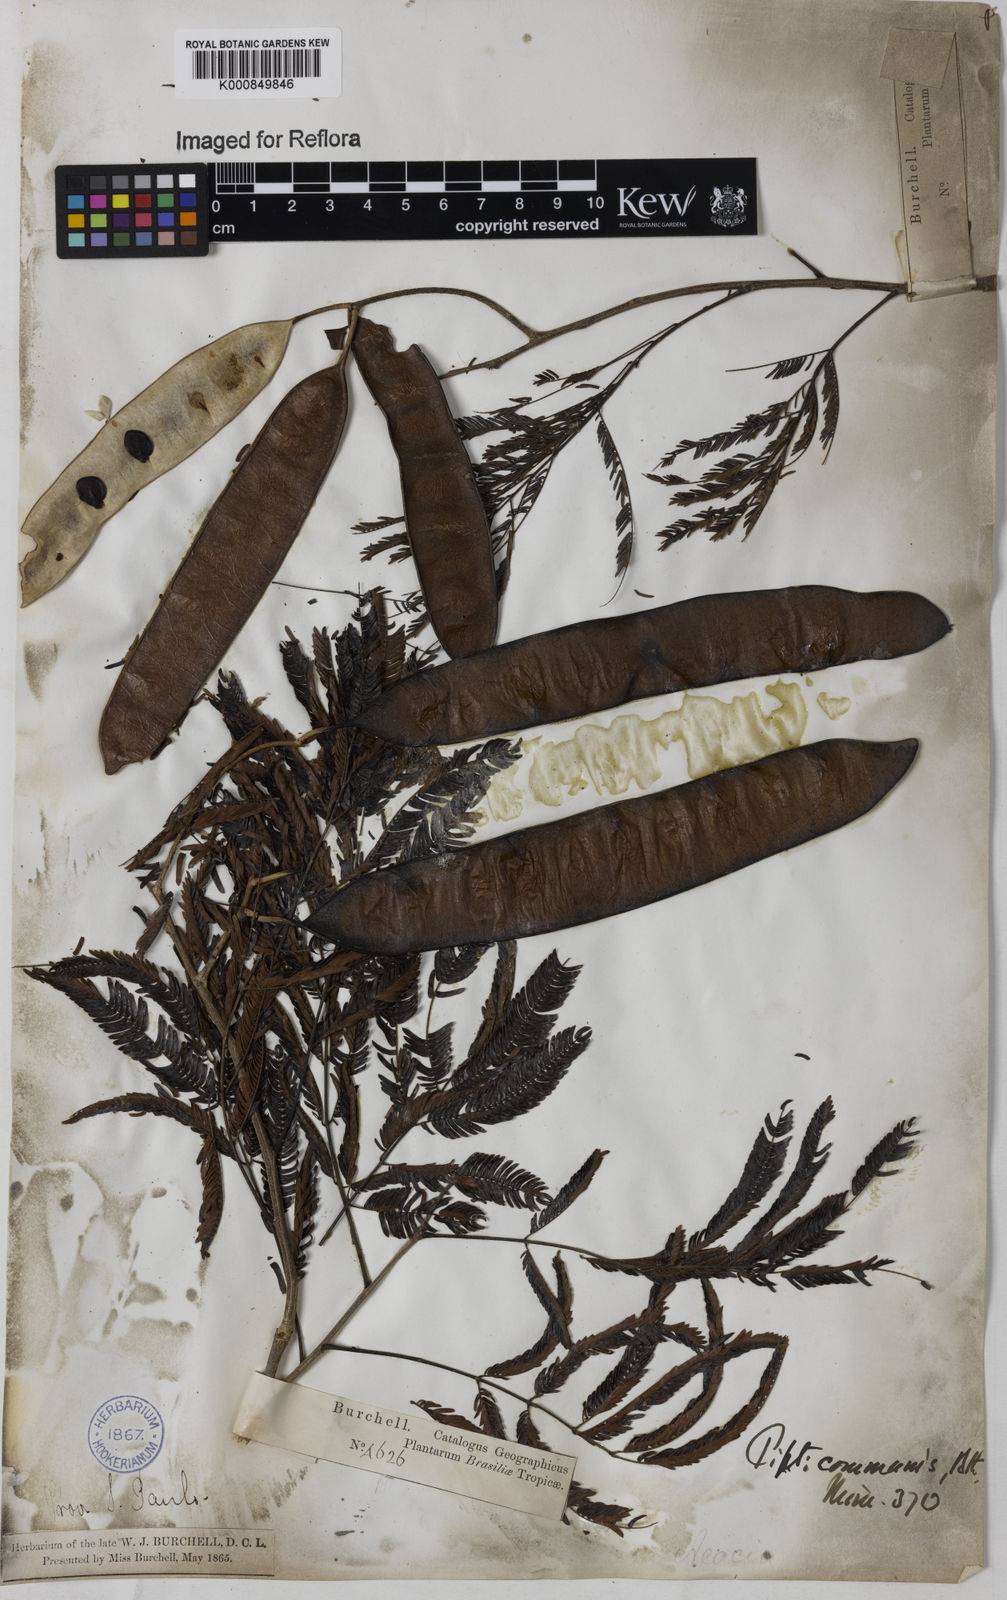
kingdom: Plantae
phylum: Tracheophyta
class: Magnoliopsida
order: Fabales
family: Fabaceae
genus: Piptadenia
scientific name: Piptadenia gonoacantha
